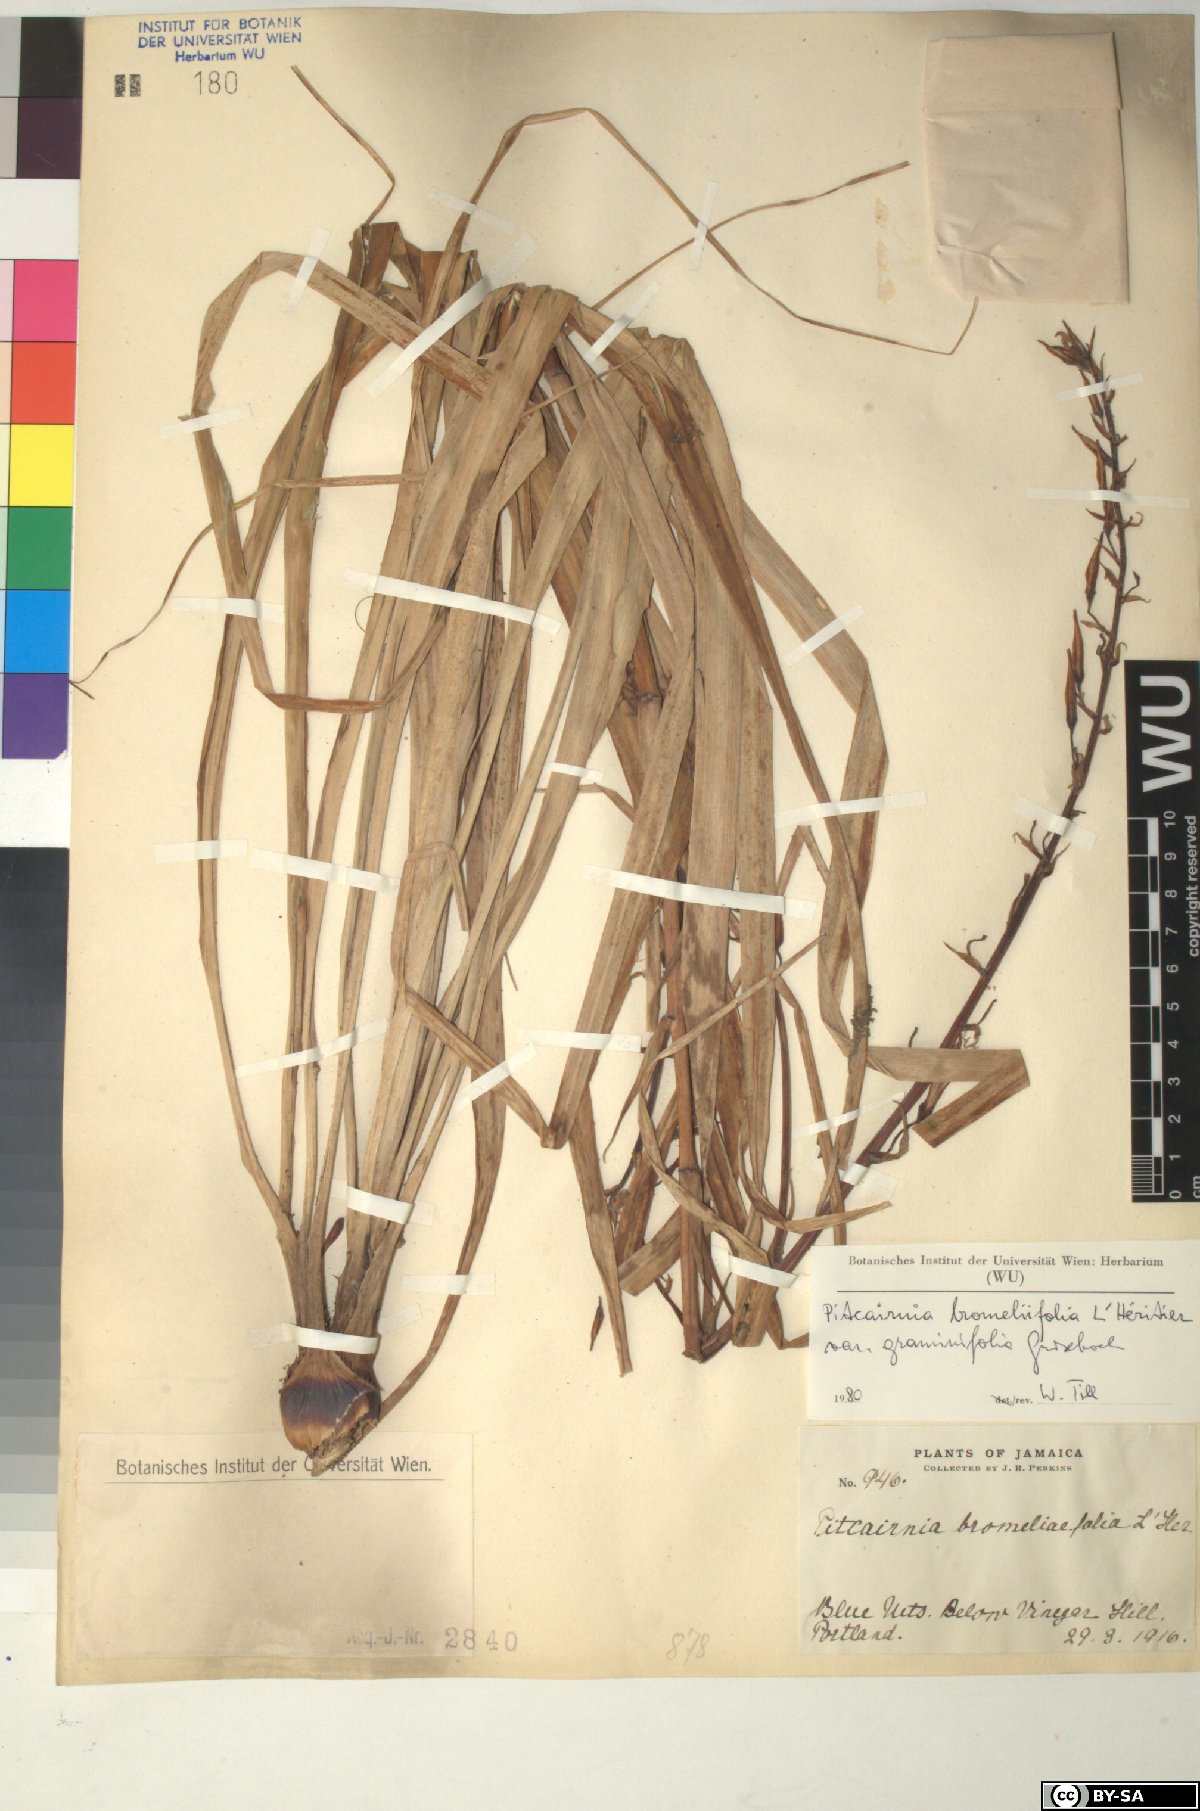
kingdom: Plantae
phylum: Tracheophyta
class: Liliopsida
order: Poales
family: Bromeliaceae
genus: Pitcairnia
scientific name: Pitcairnia
